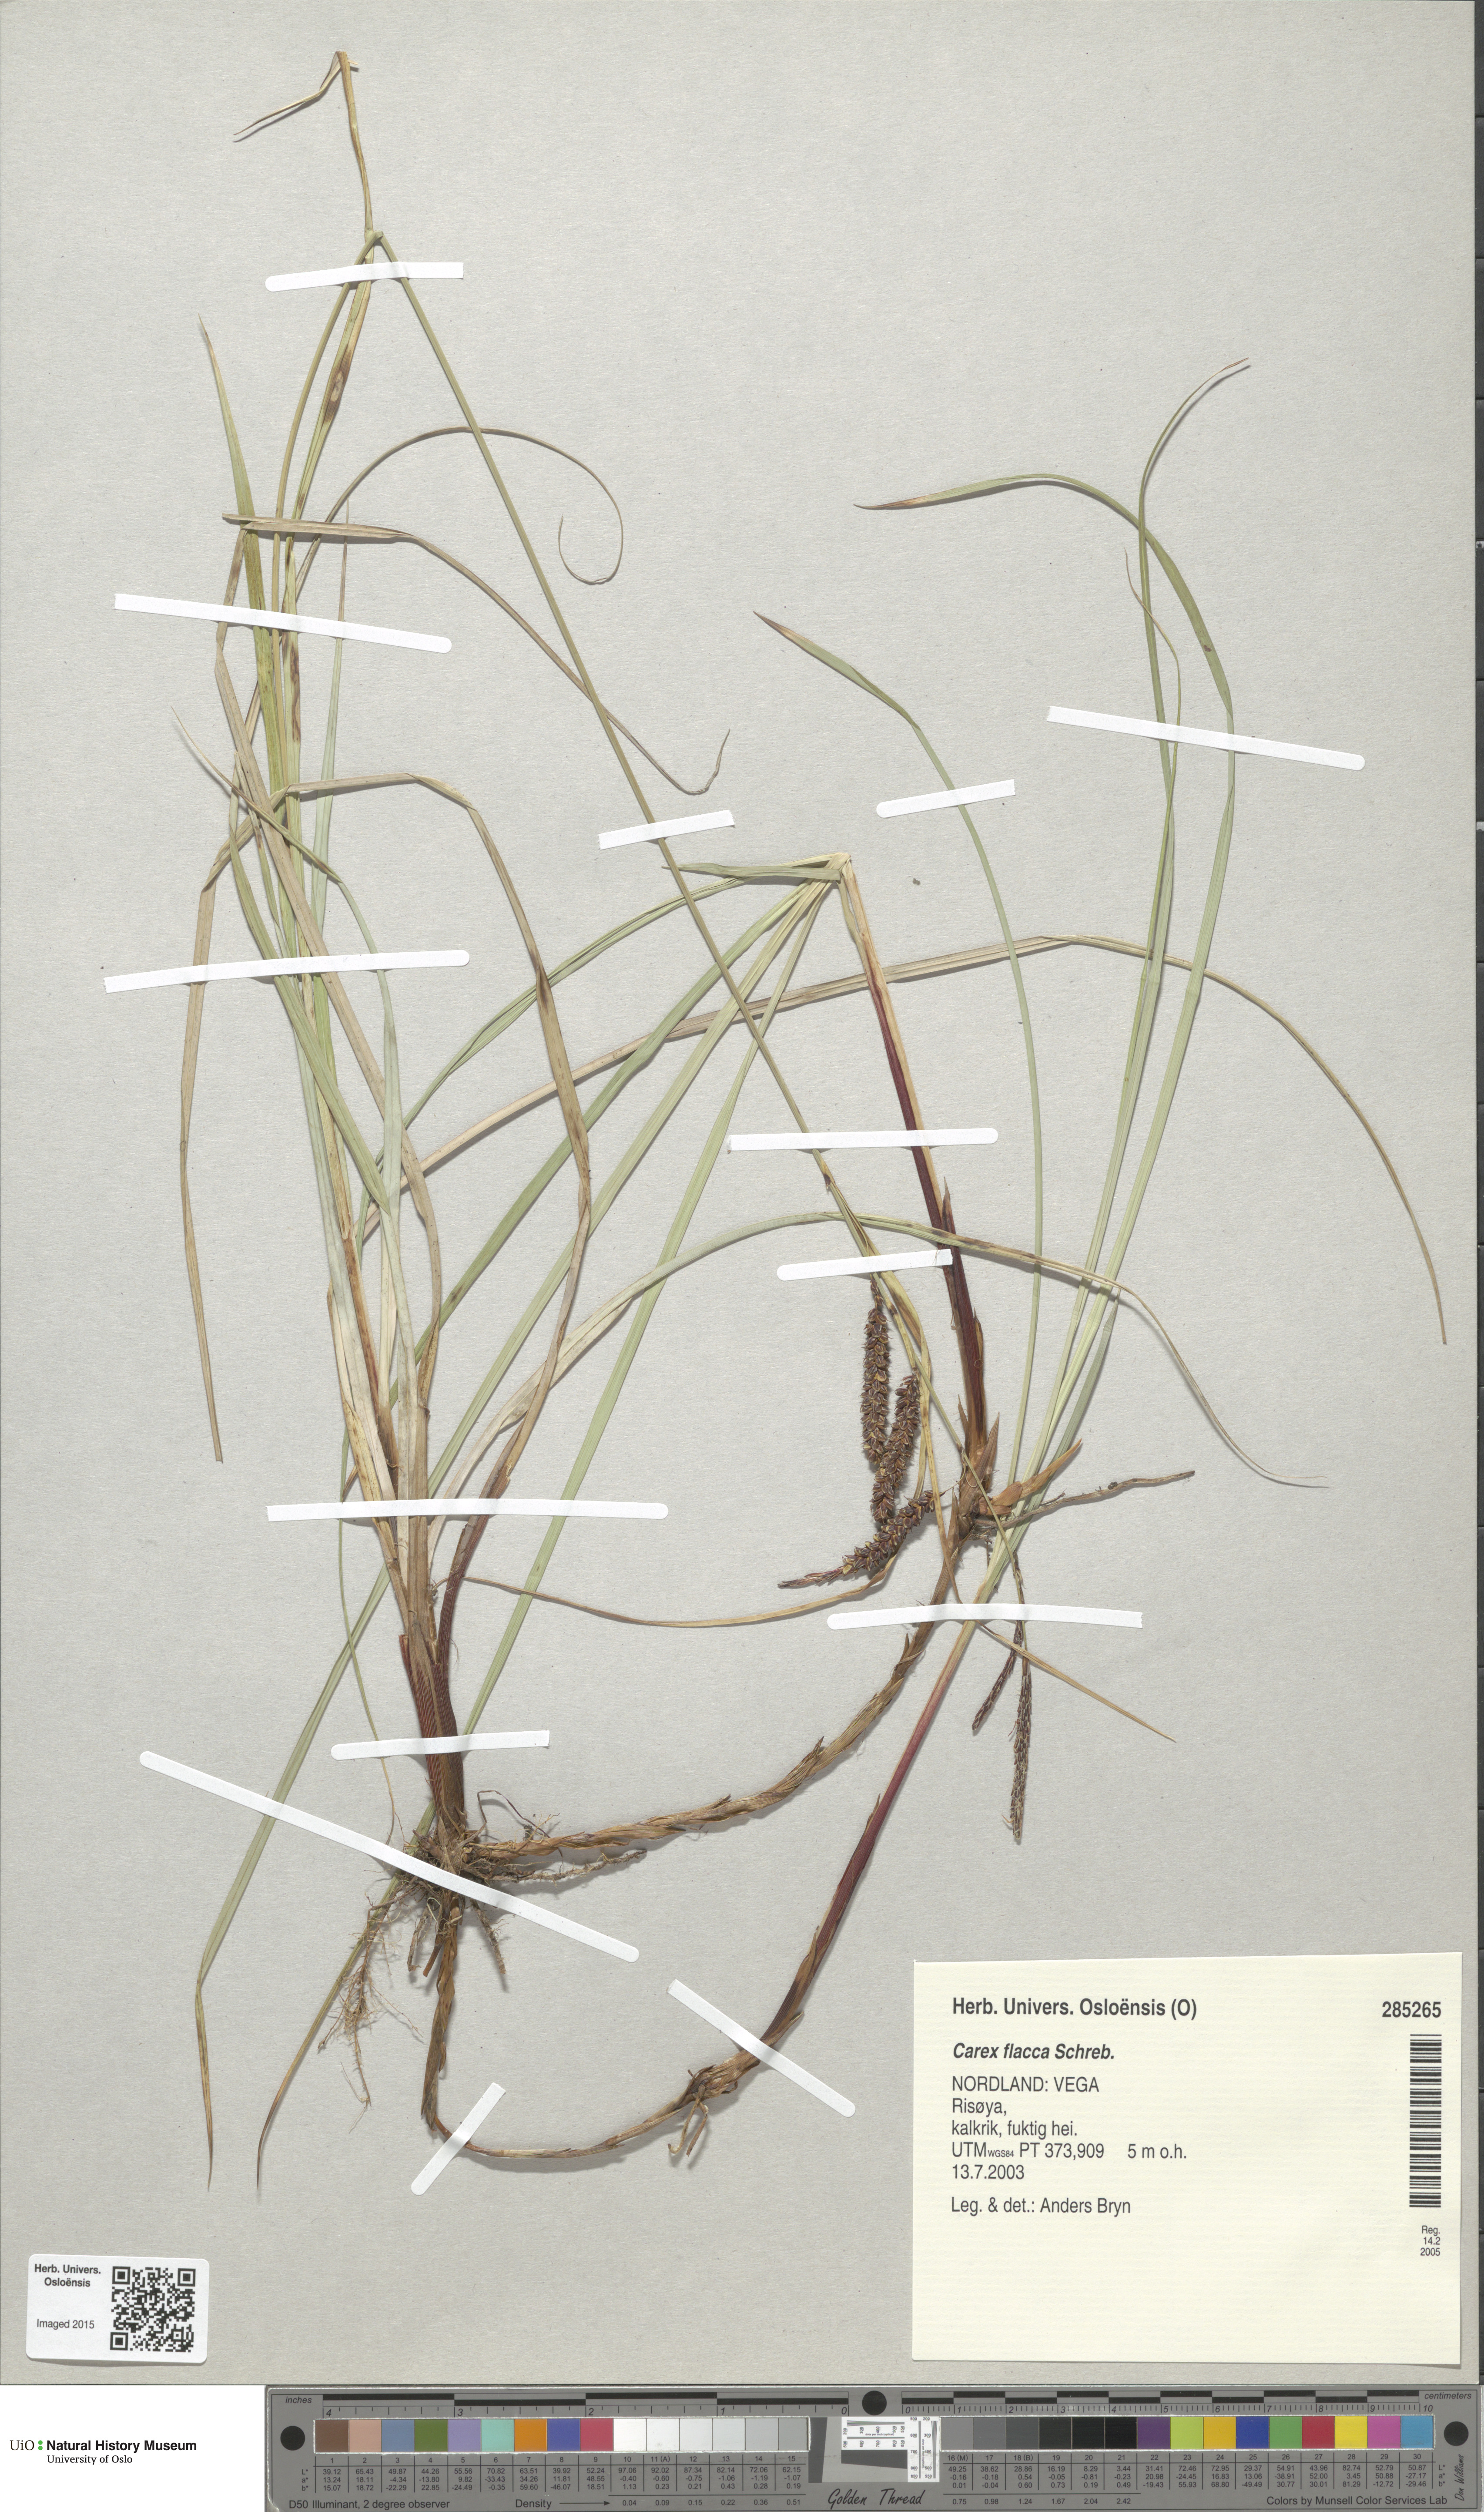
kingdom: Plantae
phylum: Tracheophyta
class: Liliopsida
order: Poales
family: Cyperaceae
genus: Carex
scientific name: Carex flacca
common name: Glaucous sedge
